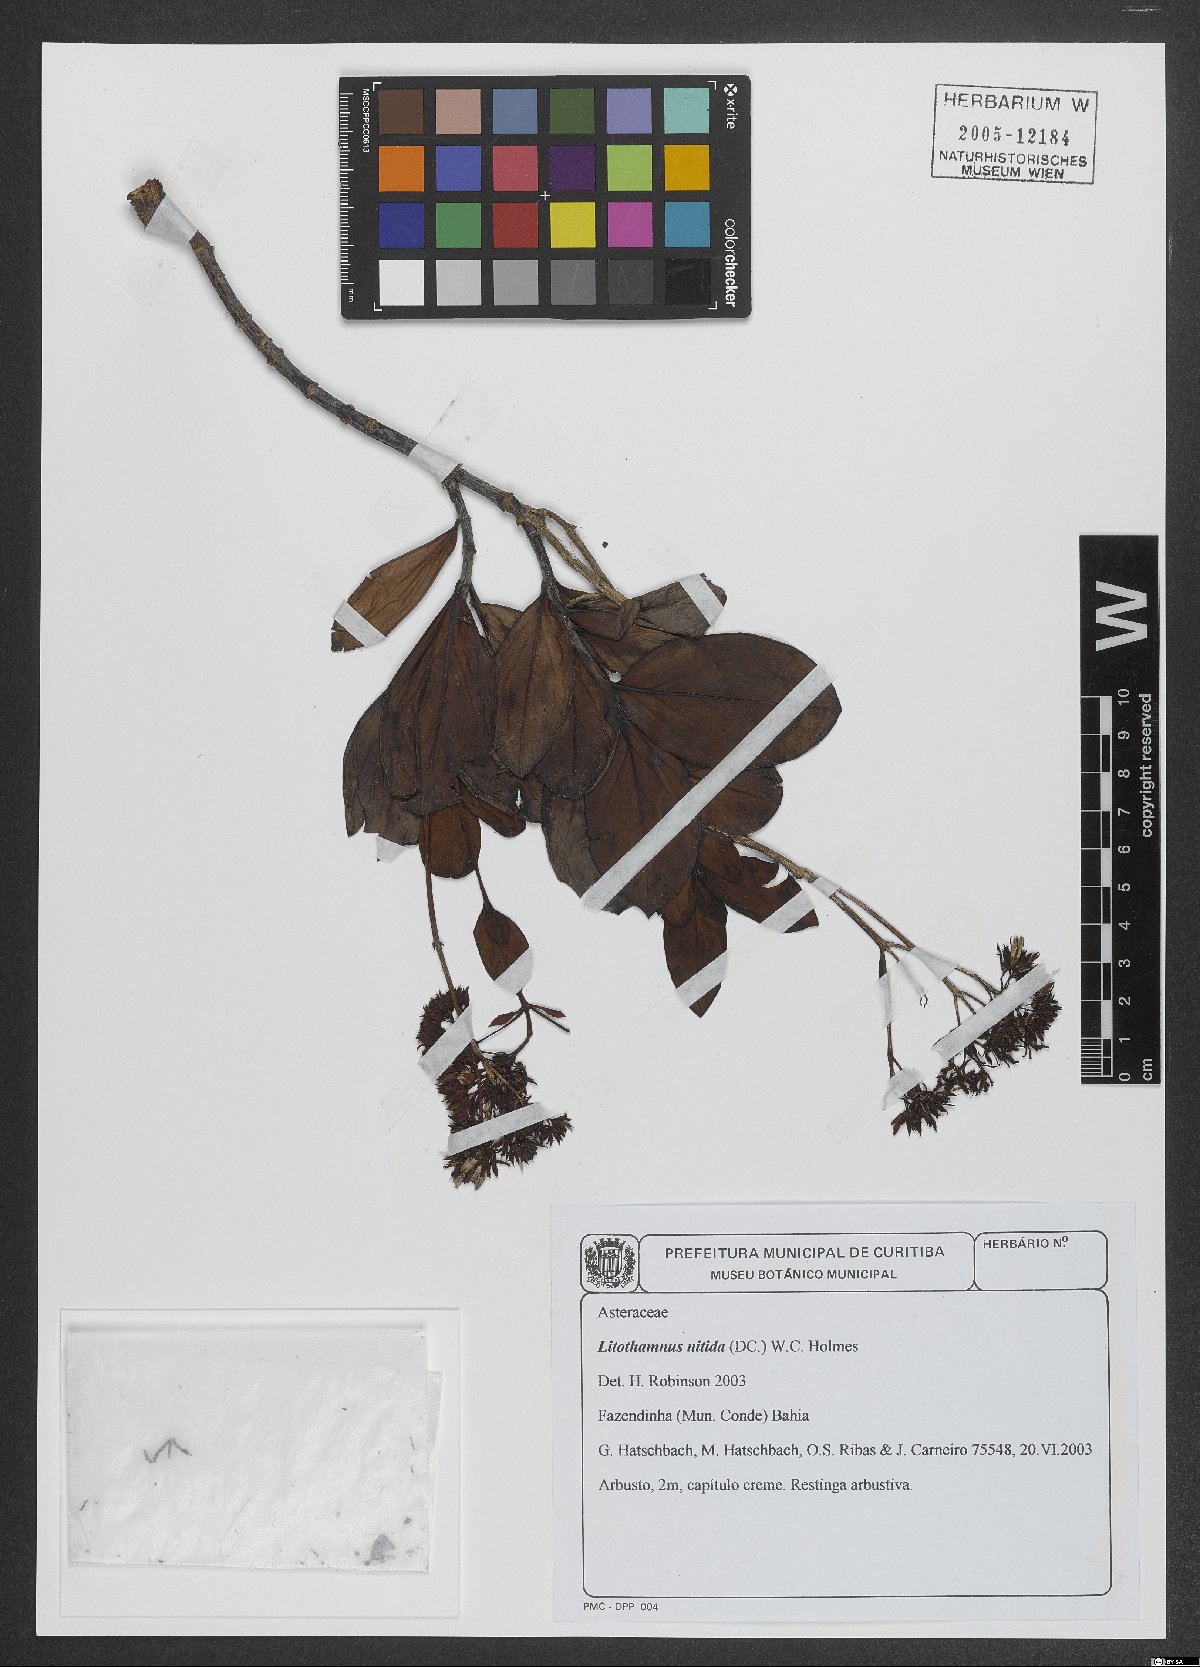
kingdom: Plantae
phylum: Tracheophyta
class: Magnoliopsida
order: Asterales
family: Asteraceae
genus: Litothamnus
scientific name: Litothamnus nitidus
